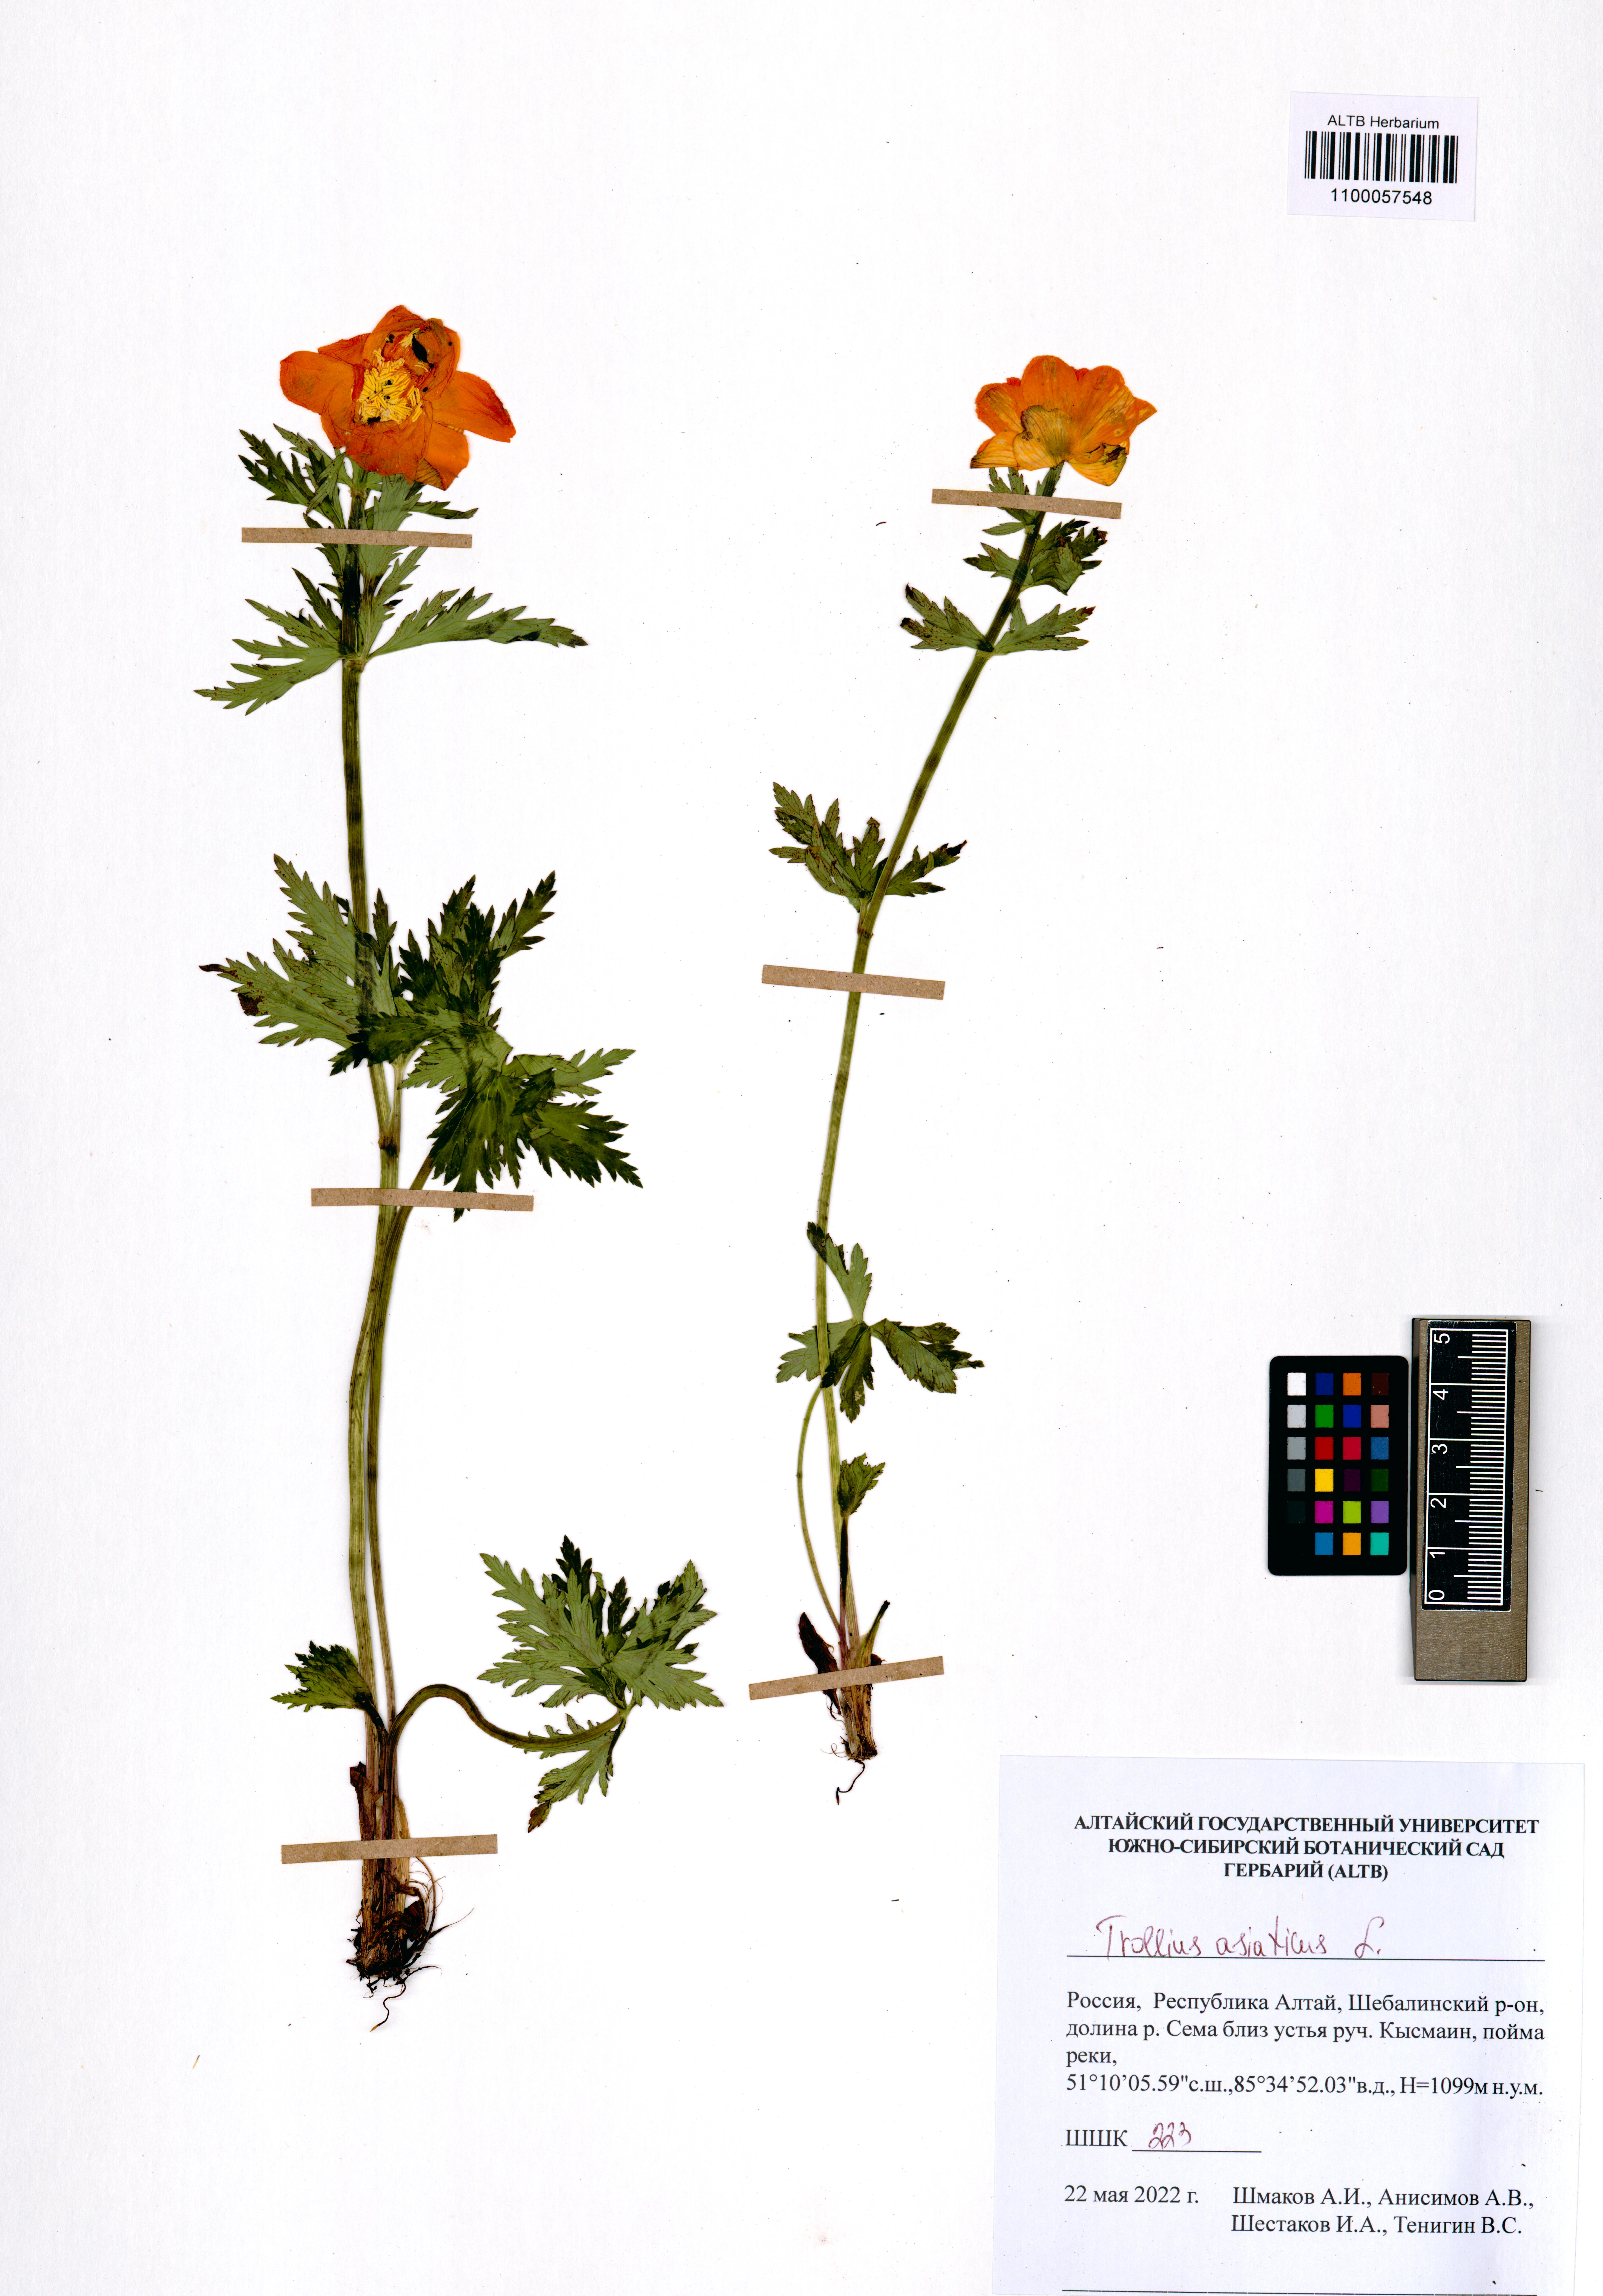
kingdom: Plantae
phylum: Tracheophyta
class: Magnoliopsida
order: Ranunculales
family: Ranunculaceae
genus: Trollius
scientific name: Trollius asiaticus
